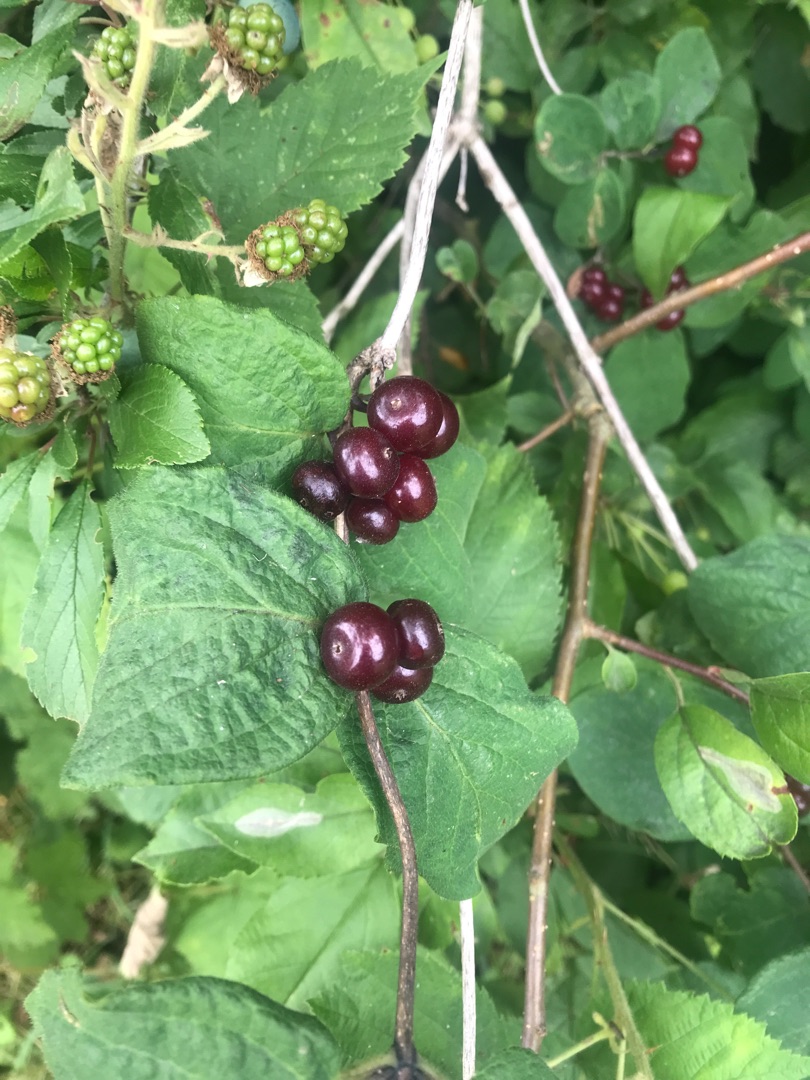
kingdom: Plantae
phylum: Tracheophyta
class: Magnoliopsida
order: Dipsacales
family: Caprifoliaceae
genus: Lonicera
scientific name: Lonicera xylosteum
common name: Dunet gedeblad
